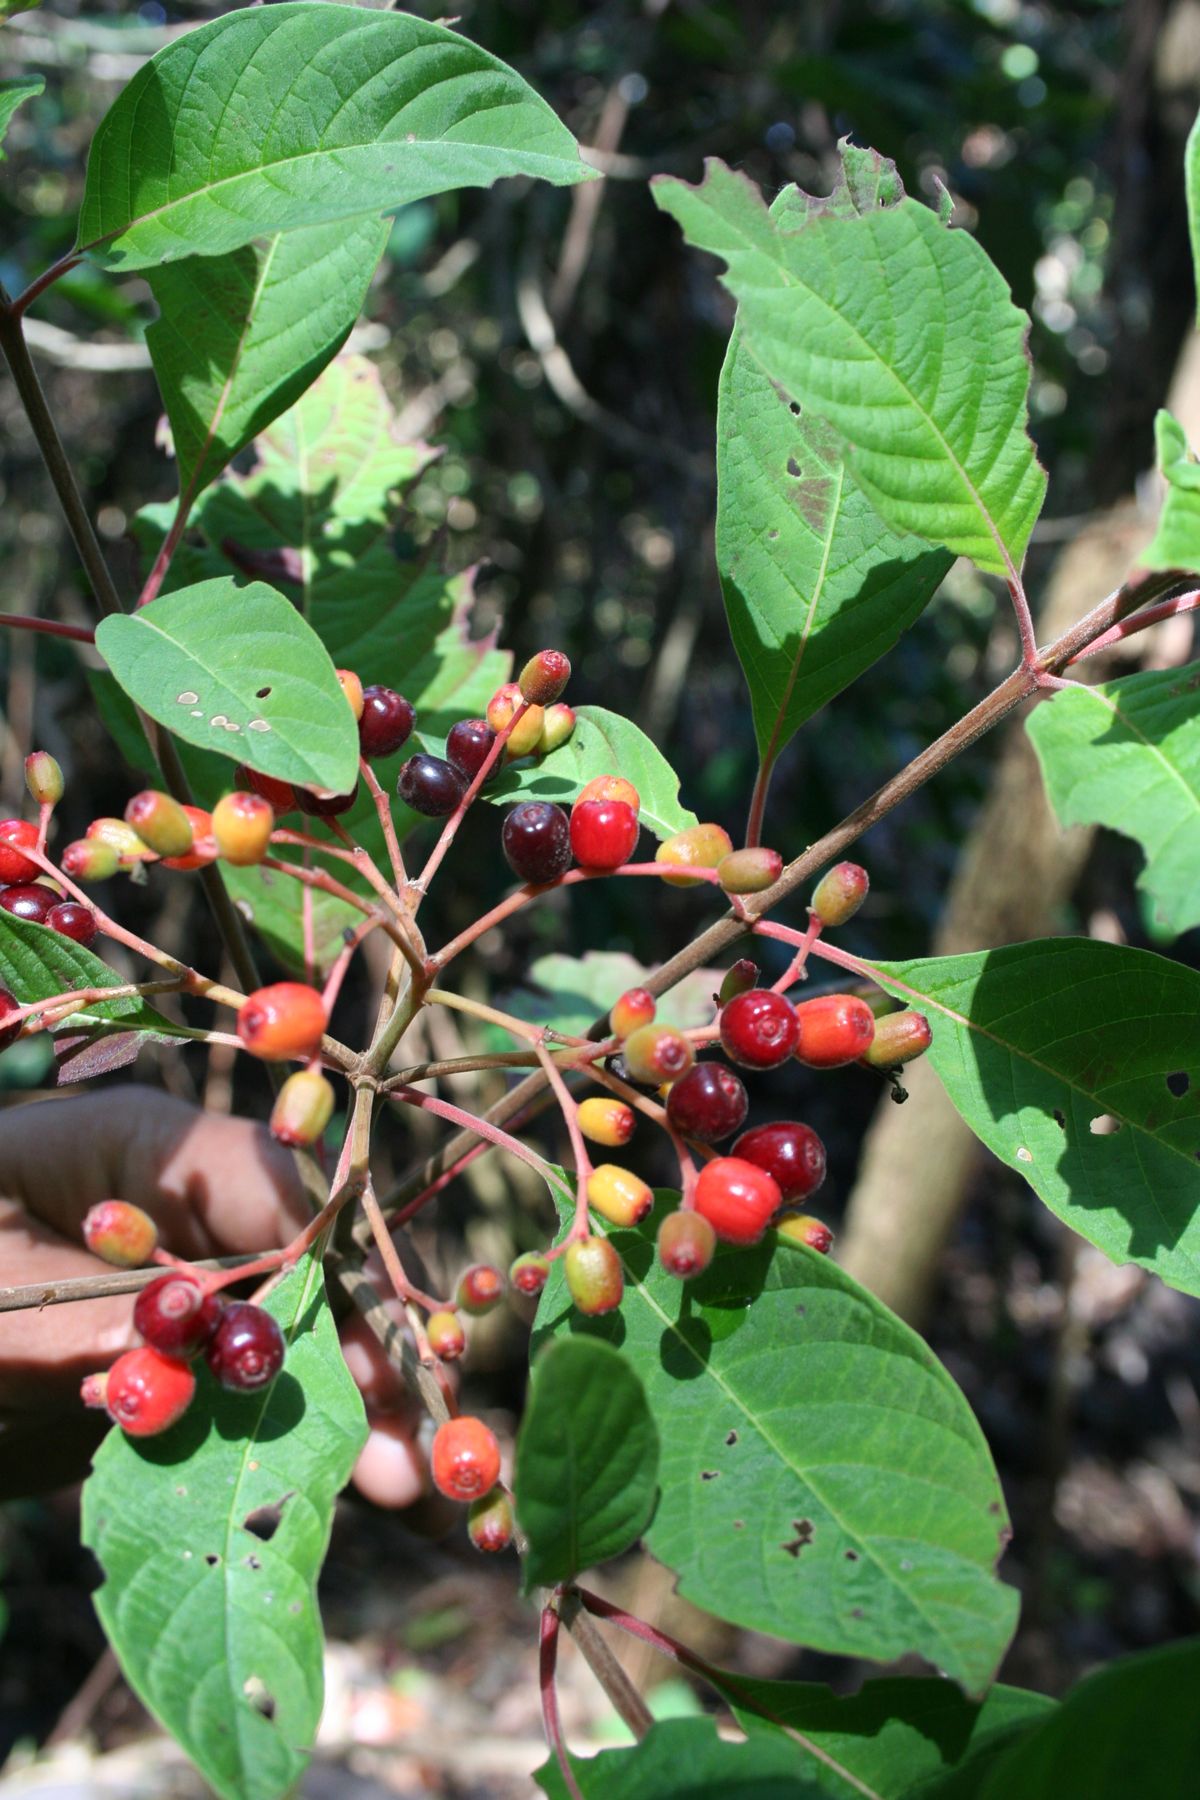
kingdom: Plantae
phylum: Tracheophyta
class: Magnoliopsida
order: Gentianales
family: Rubiaceae
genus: Hamelia
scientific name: Hamelia patens
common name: Redhead
